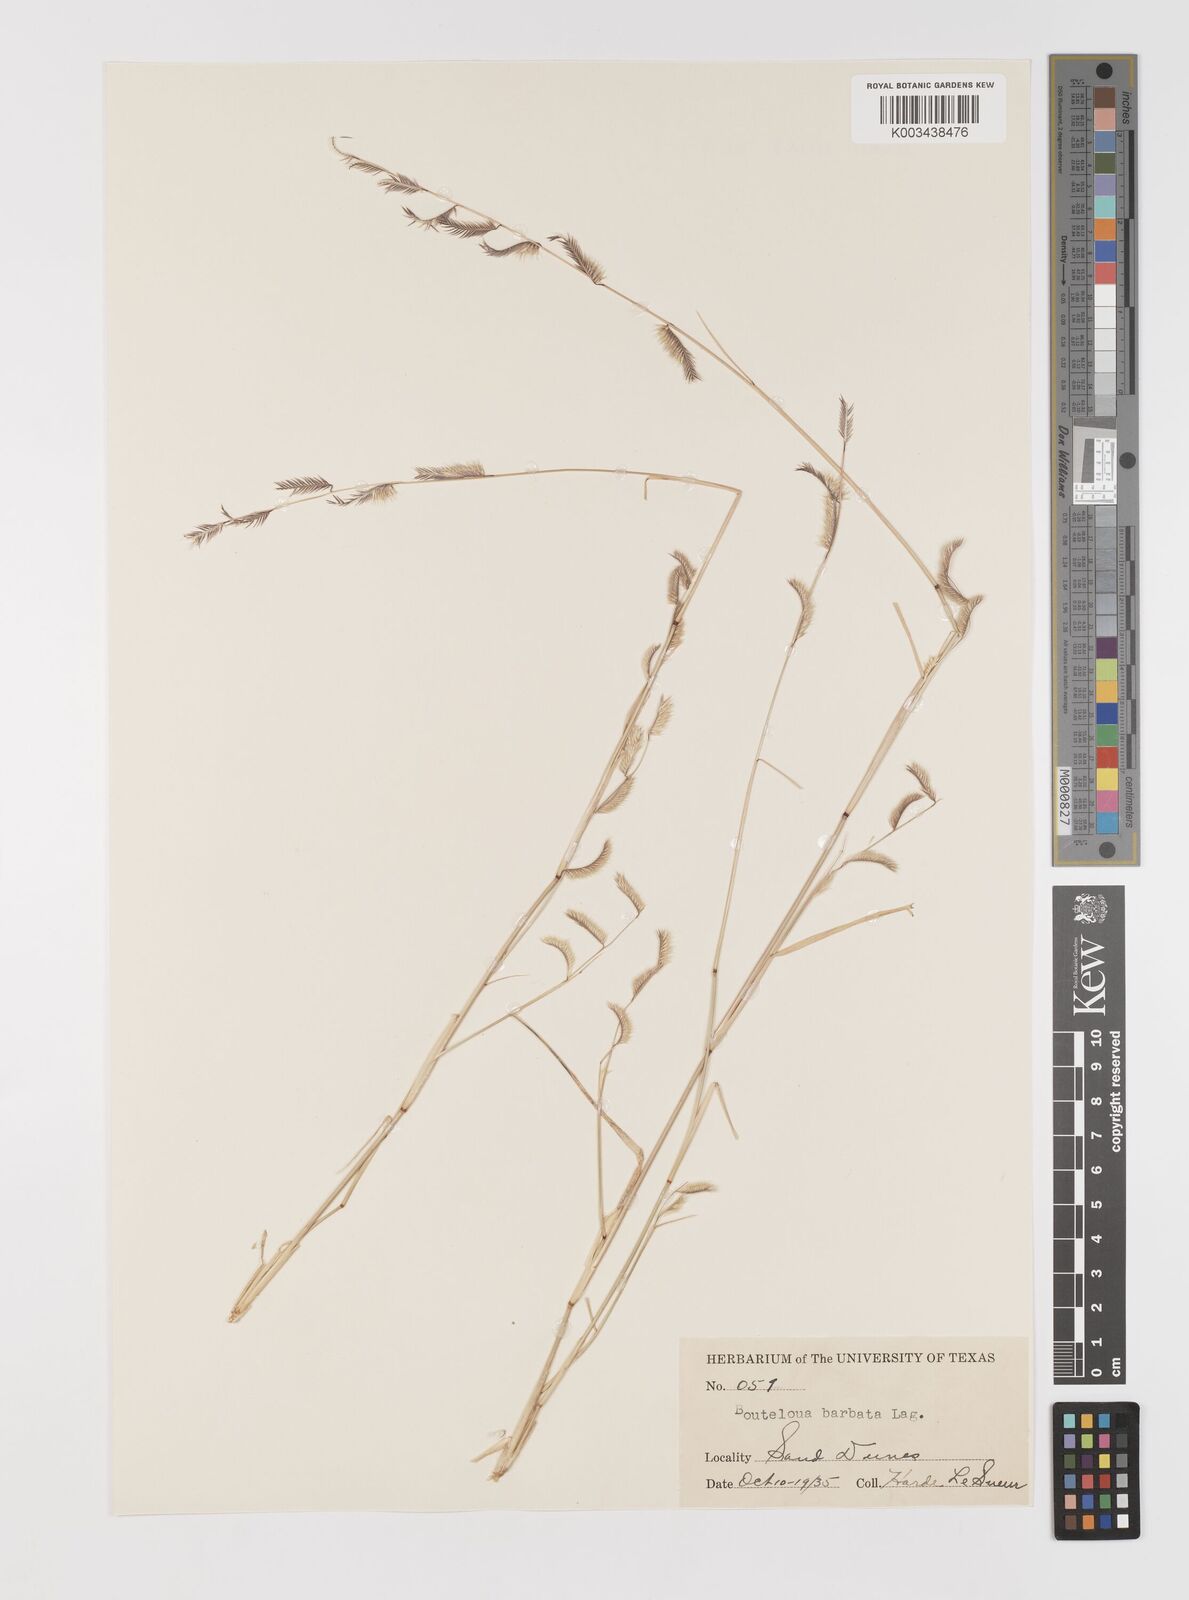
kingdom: Plantae
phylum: Tracheophyta
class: Liliopsida
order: Poales
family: Poaceae
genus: Bouteloua
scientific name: Bouteloua
